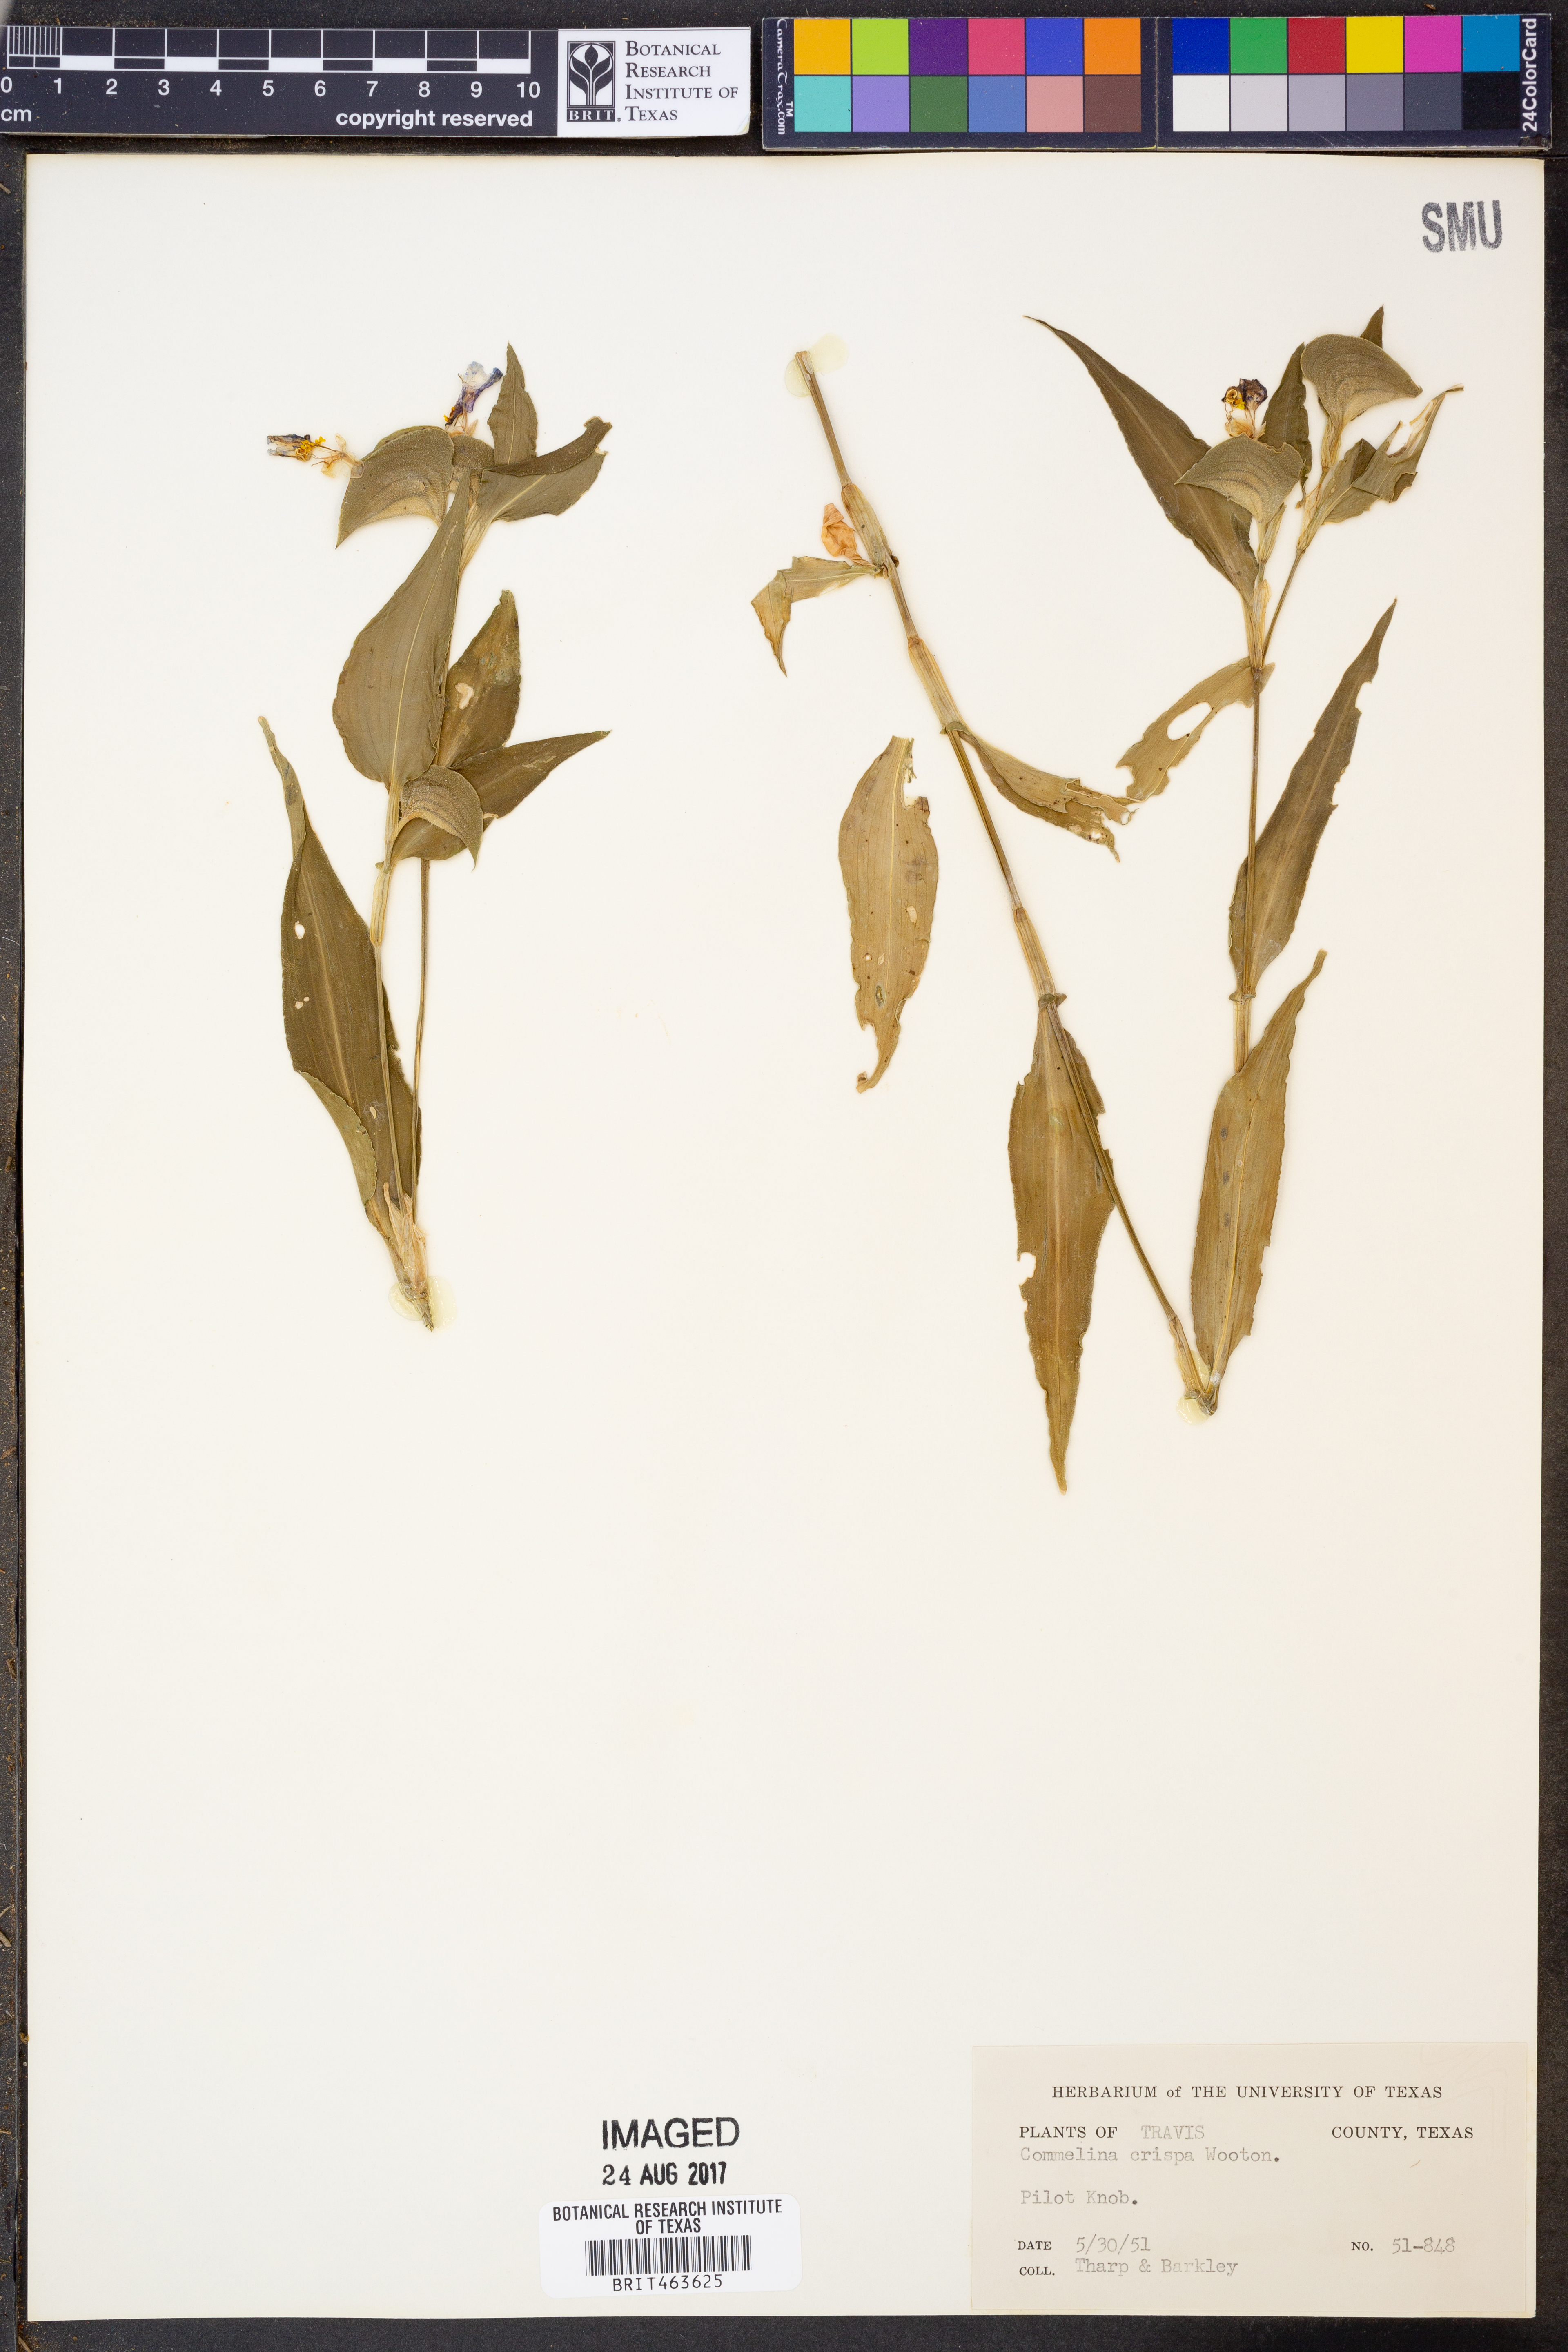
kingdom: Plantae
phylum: Tracheophyta
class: Liliopsida
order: Commelinales
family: Commelinaceae
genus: Commelina
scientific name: Commelina erecta
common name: Blousel blommetjie
